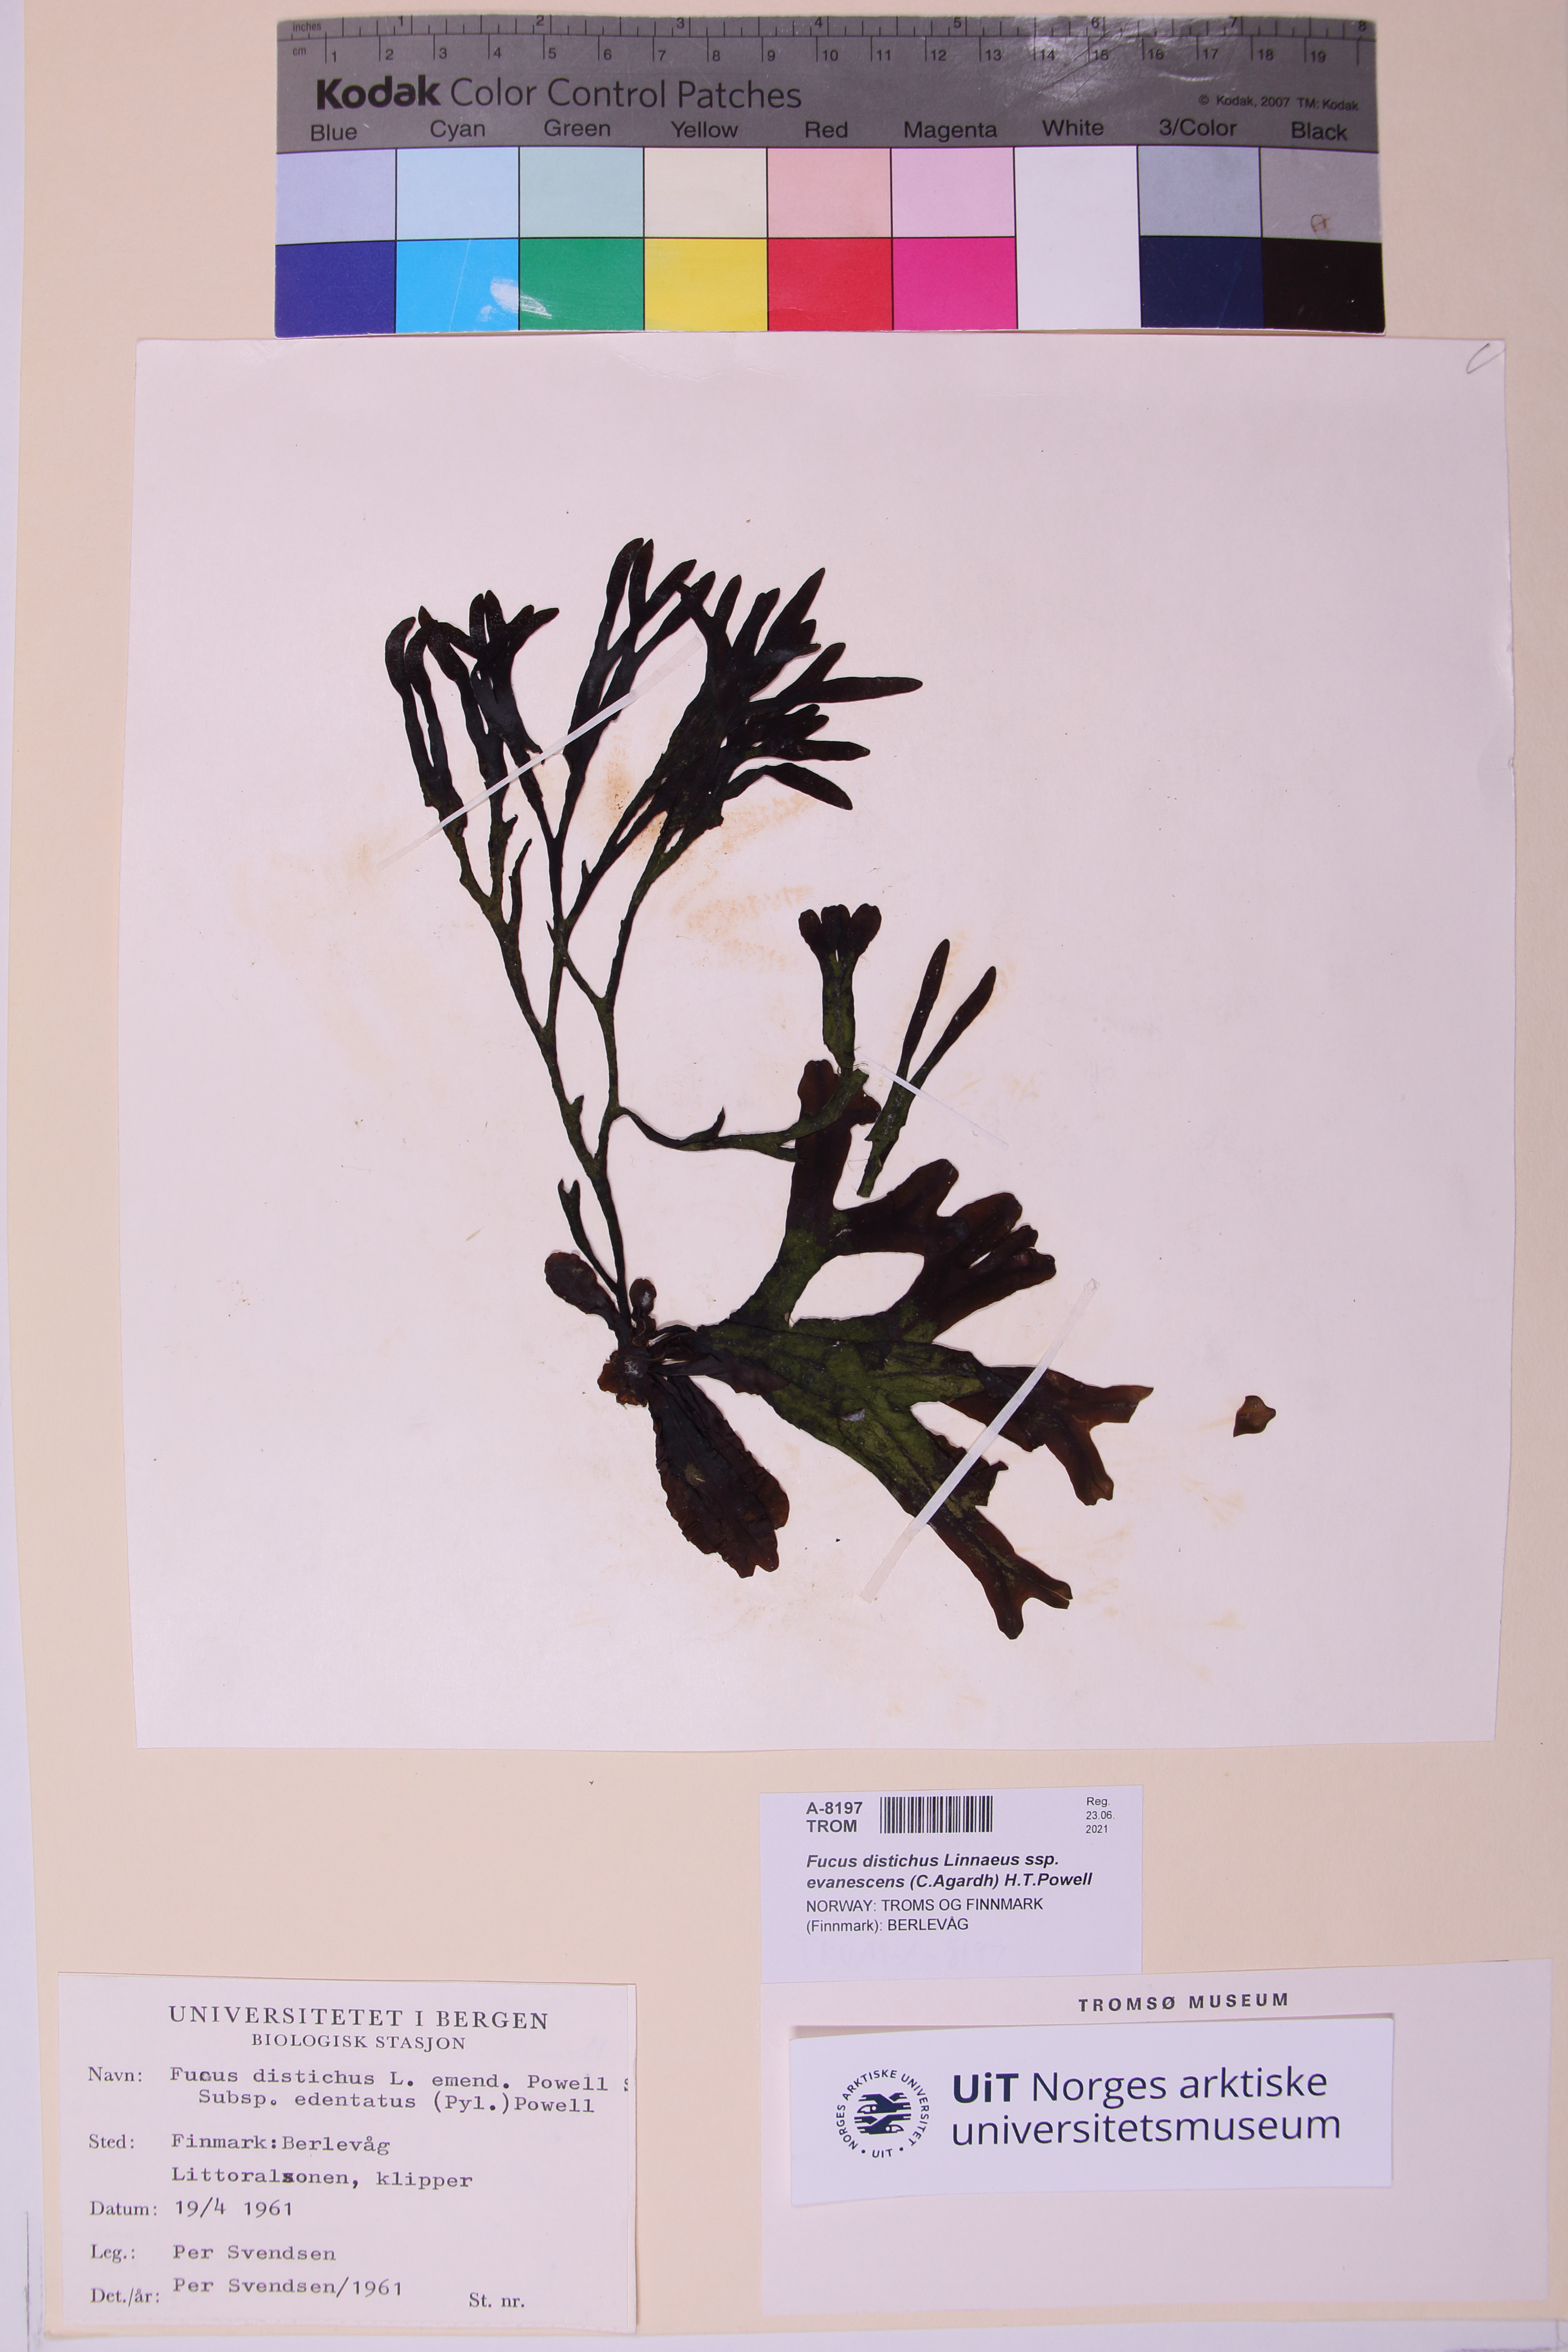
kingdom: Chromista
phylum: Ochrophyta
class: Phaeophyceae
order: Fucales
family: Fucaceae
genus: Fucus
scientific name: Fucus evanescens
